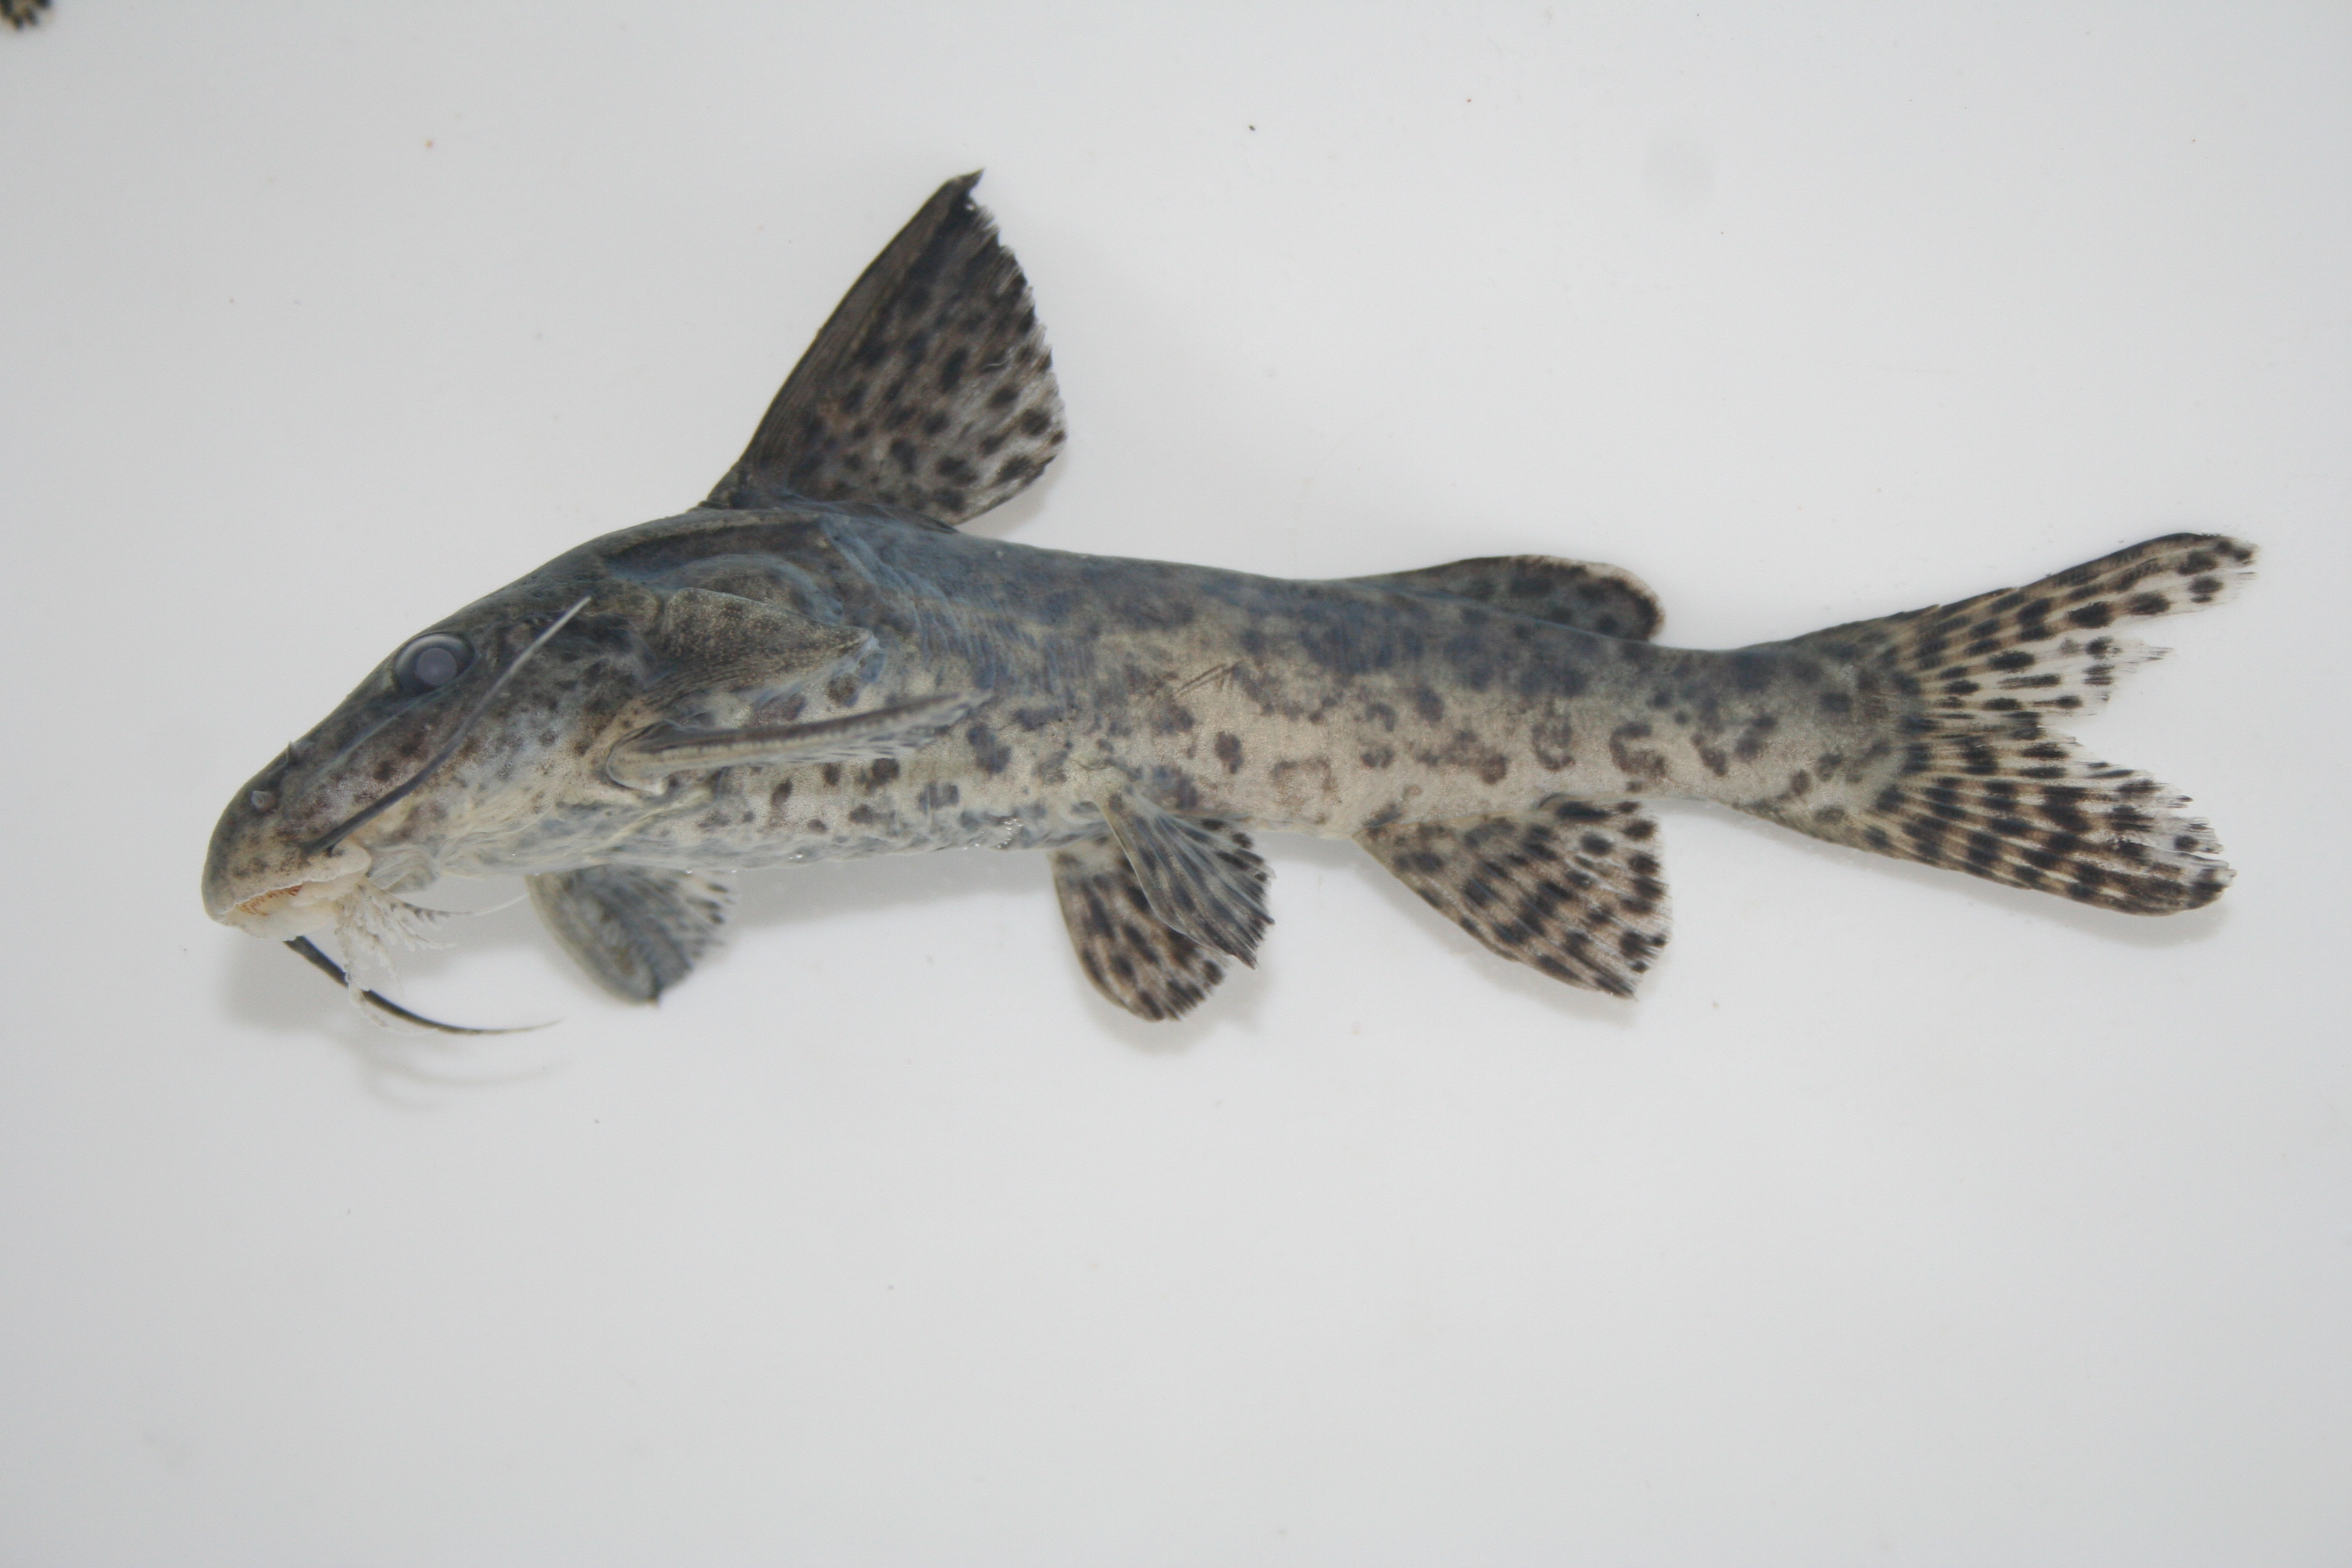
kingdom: Animalia
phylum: Chordata
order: Siluriformes
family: Mochokidae
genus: Synodontis
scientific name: Synodontis
